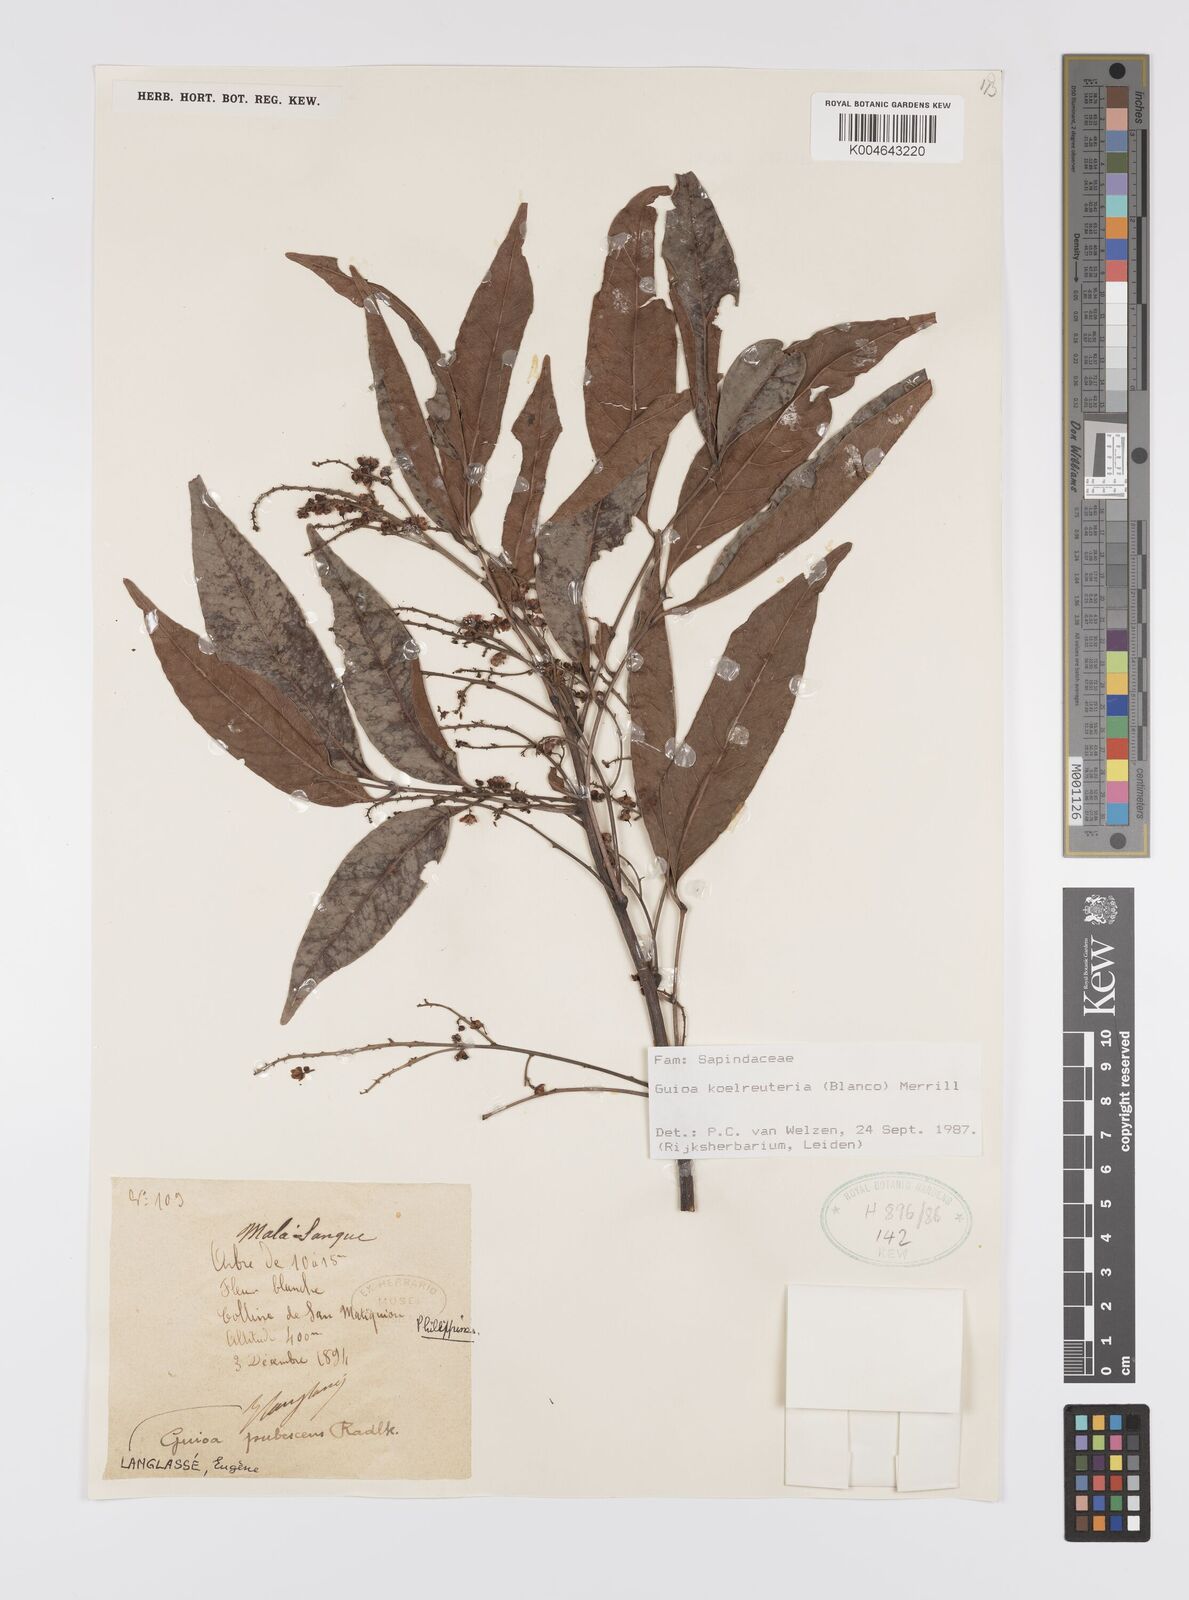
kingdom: Plantae
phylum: Tracheophyta
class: Magnoliopsida
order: Sapindales
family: Sapindaceae
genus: Guioa
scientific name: Guioa koelreuteria
